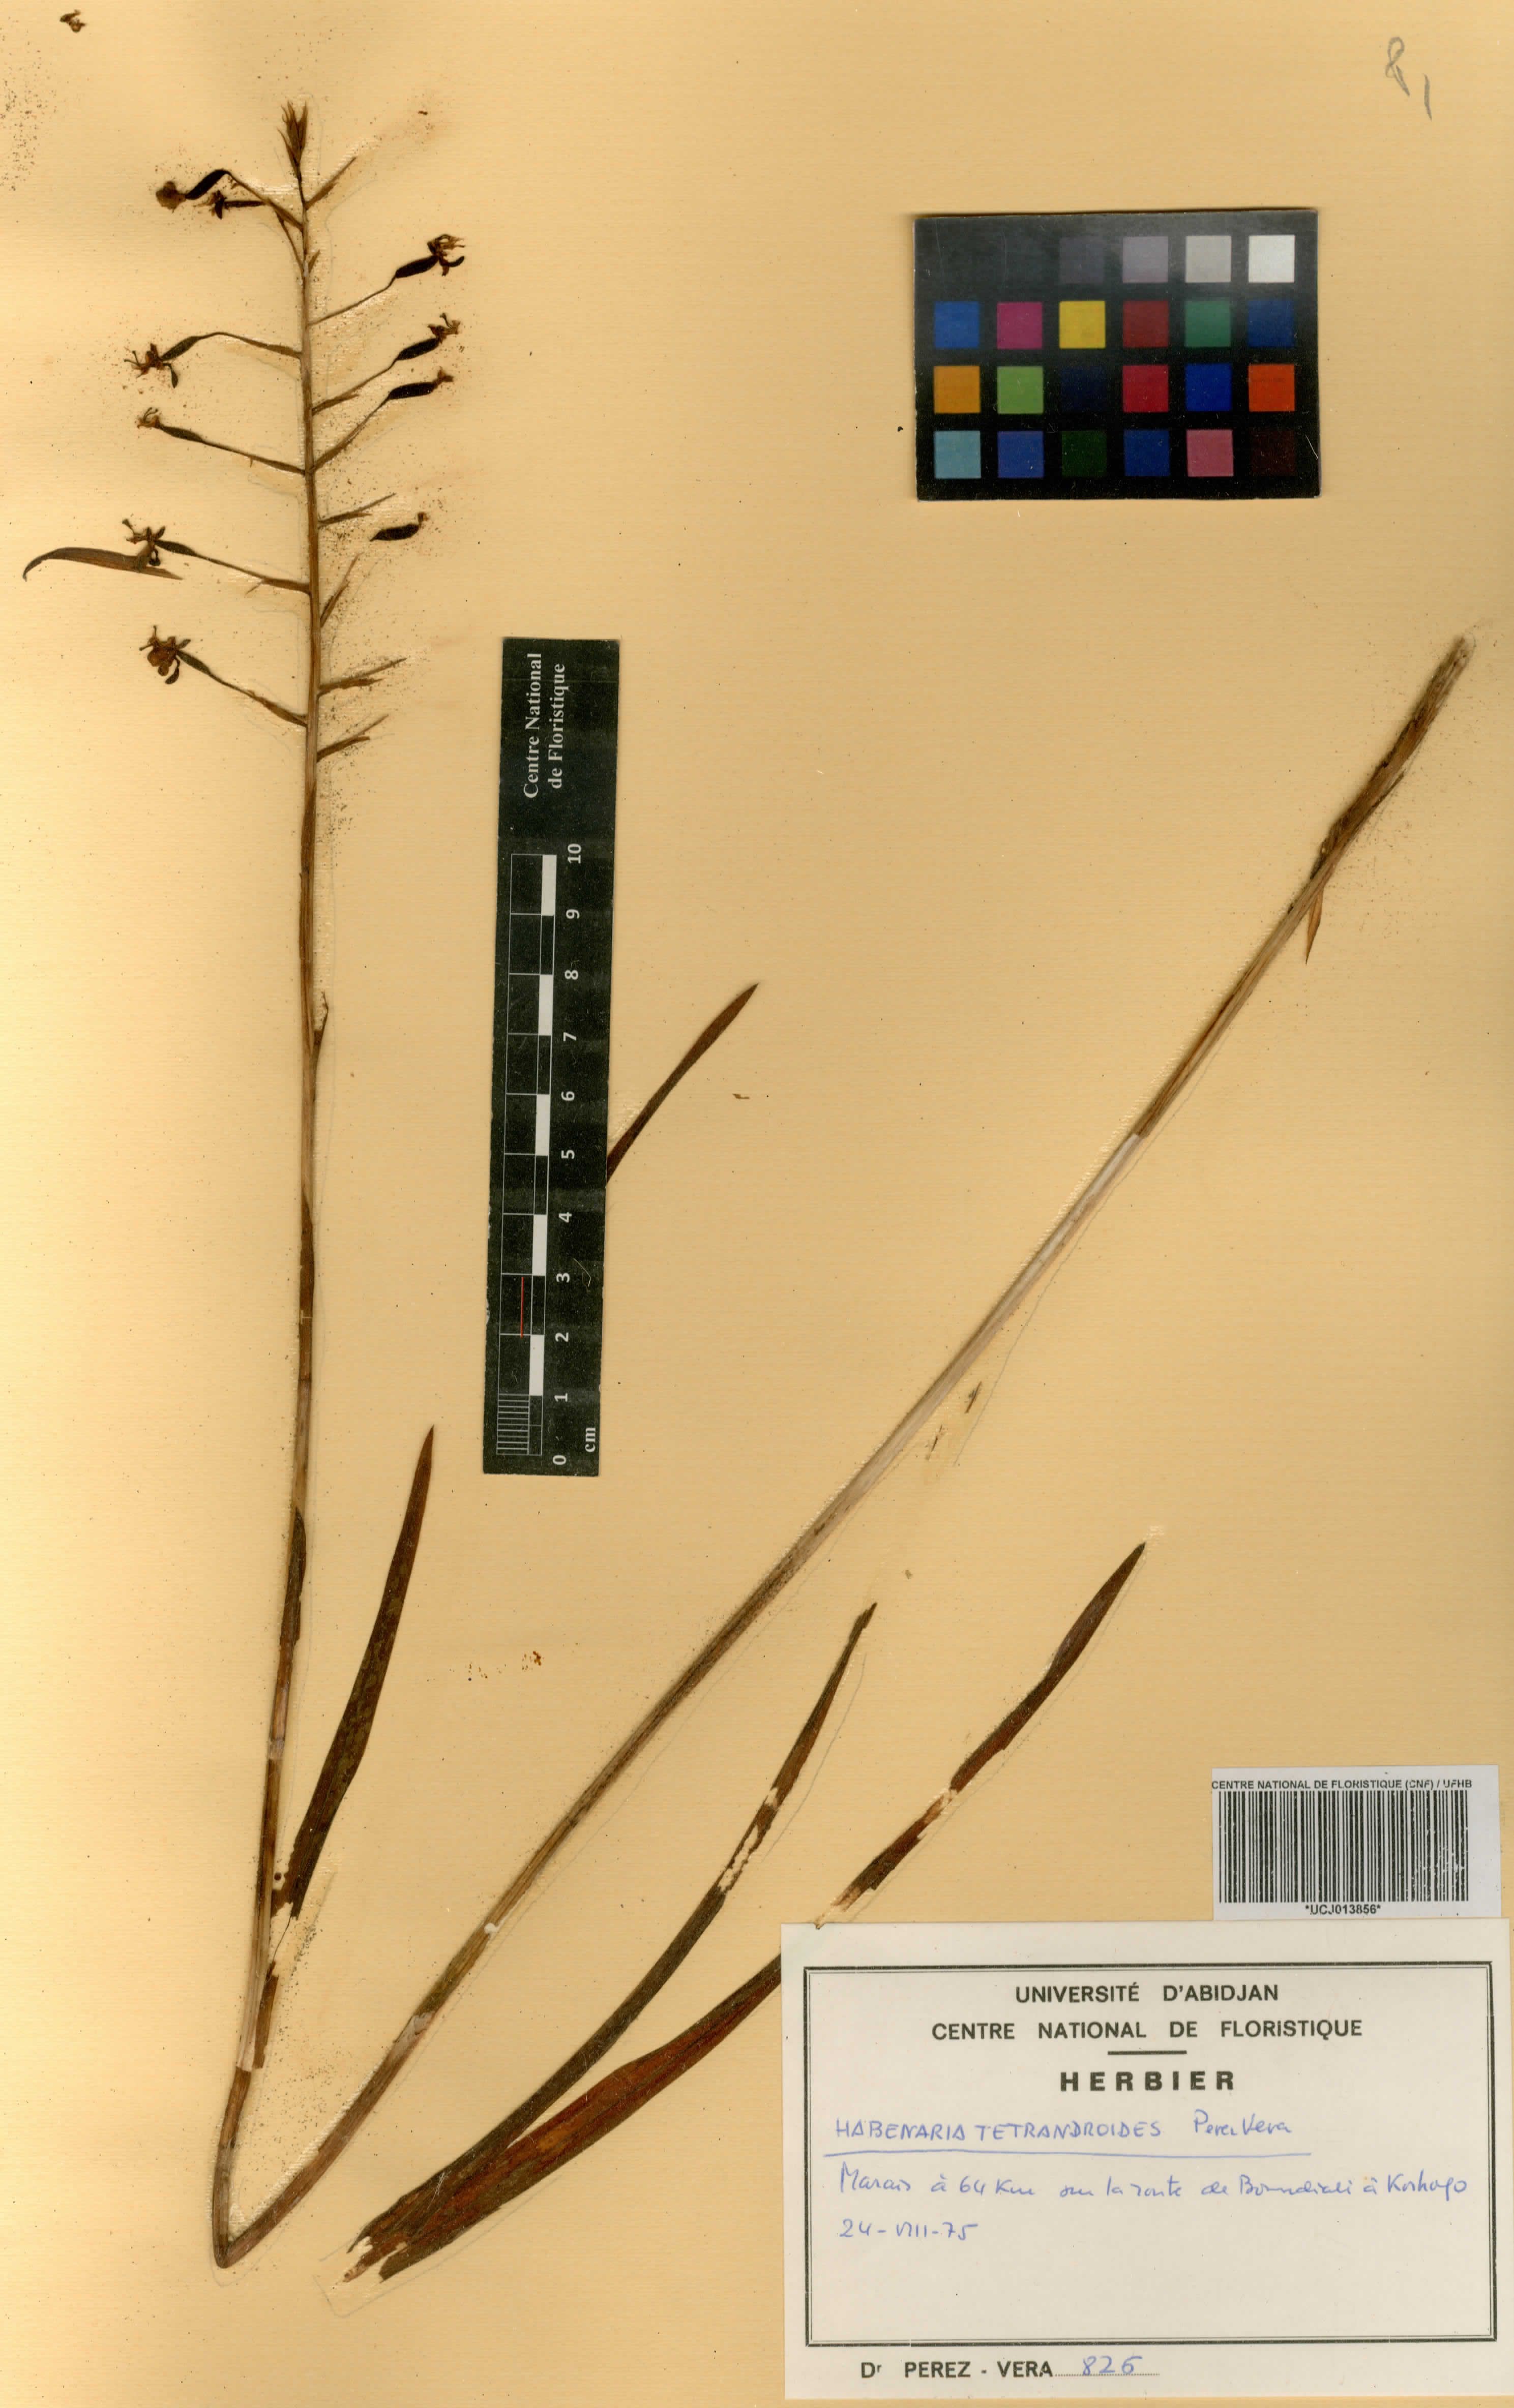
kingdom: Plantae
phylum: Tracheophyta
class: Liliopsida
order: Asparagales
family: Orchidaceae
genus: Habenaria
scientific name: Habenaria
